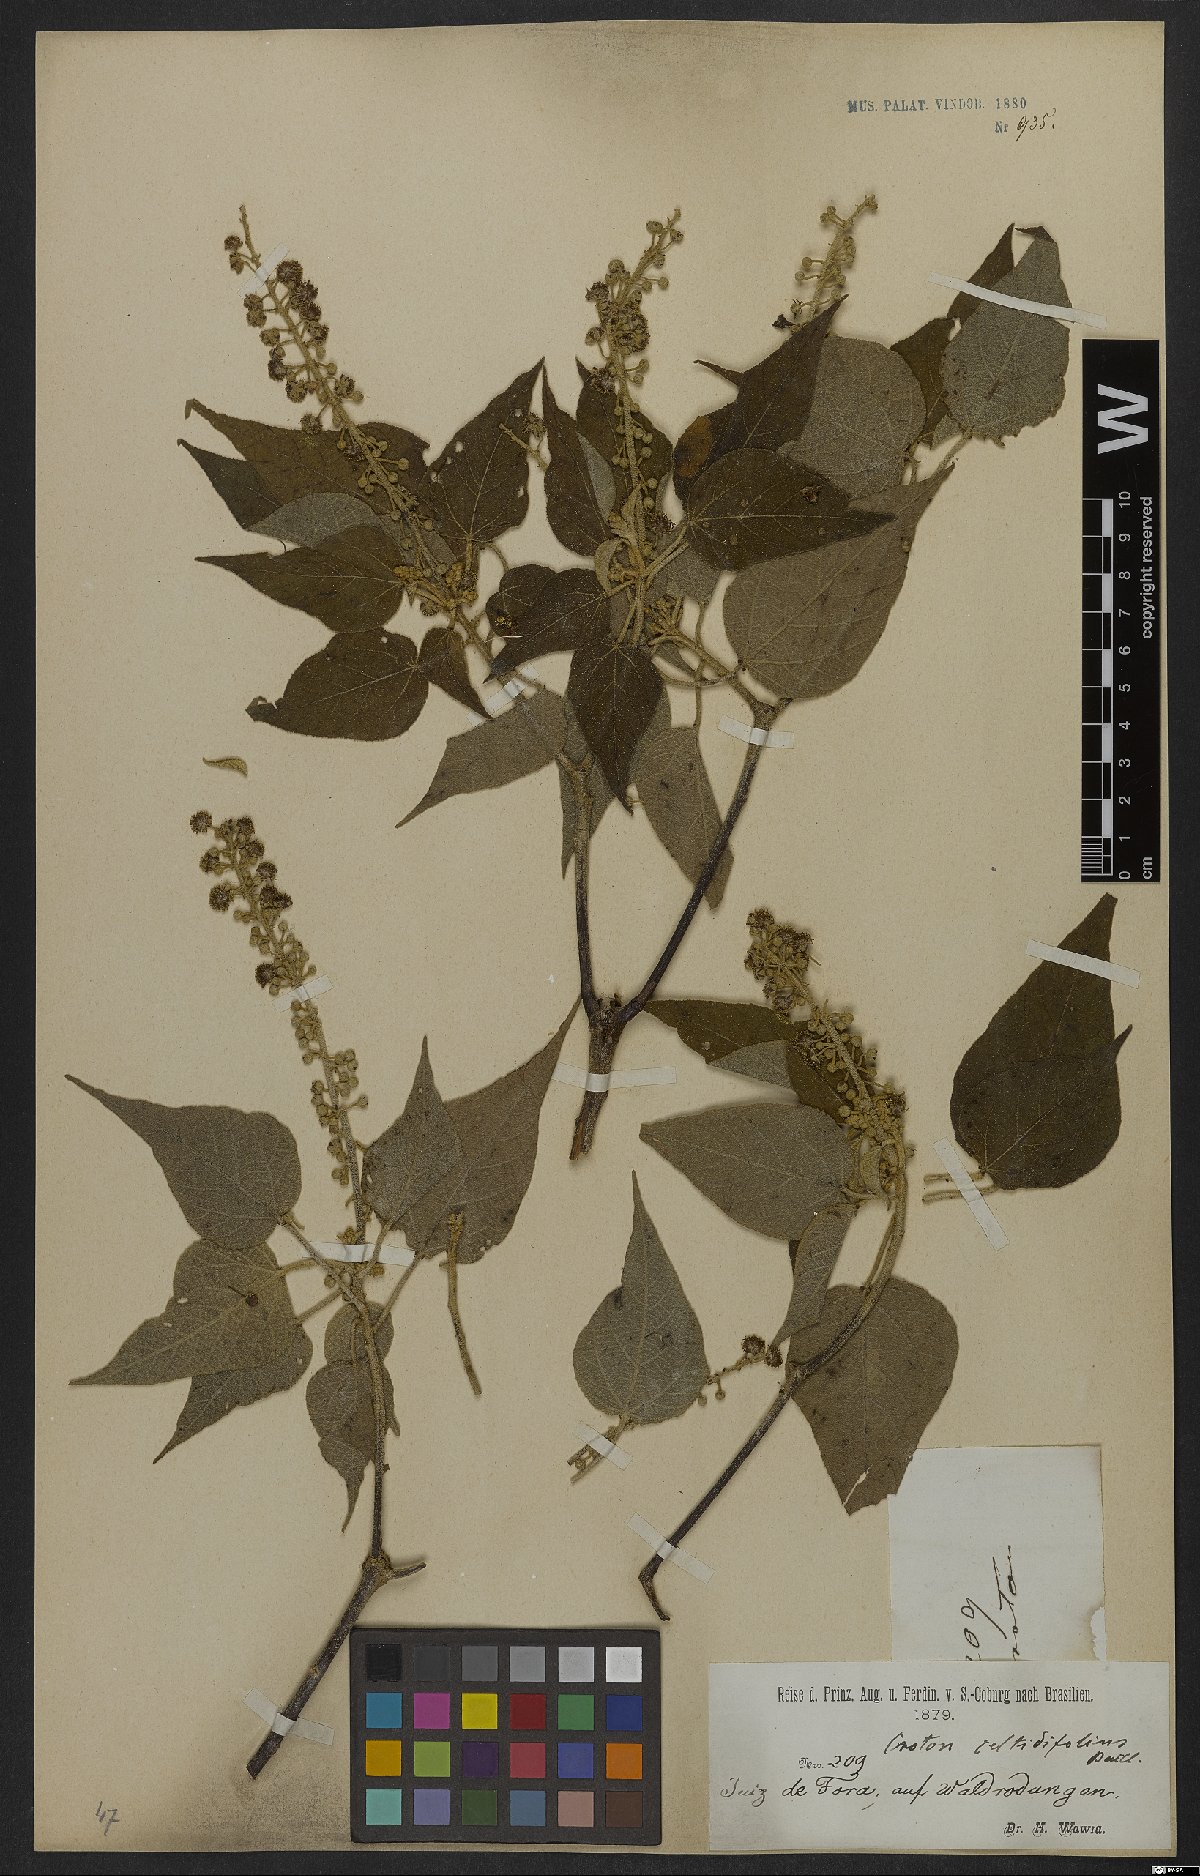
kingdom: Plantae
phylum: Tracheophyta
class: Magnoliopsida
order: Malpighiales
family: Euphorbiaceae
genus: Croton
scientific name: Croton celtidifolius
